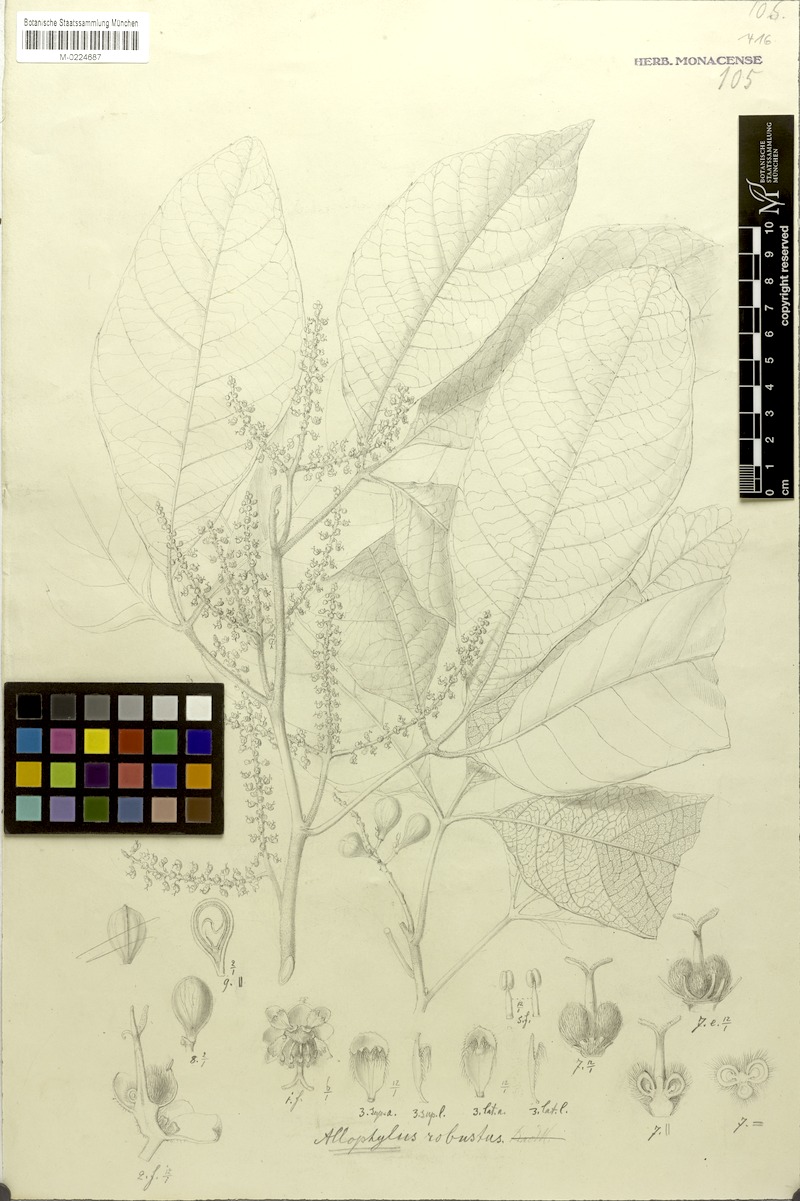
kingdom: Plantae
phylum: Tracheophyta
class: Magnoliopsida
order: Sapindales
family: Sapindaceae
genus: Allophylus
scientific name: Allophylus robustus
